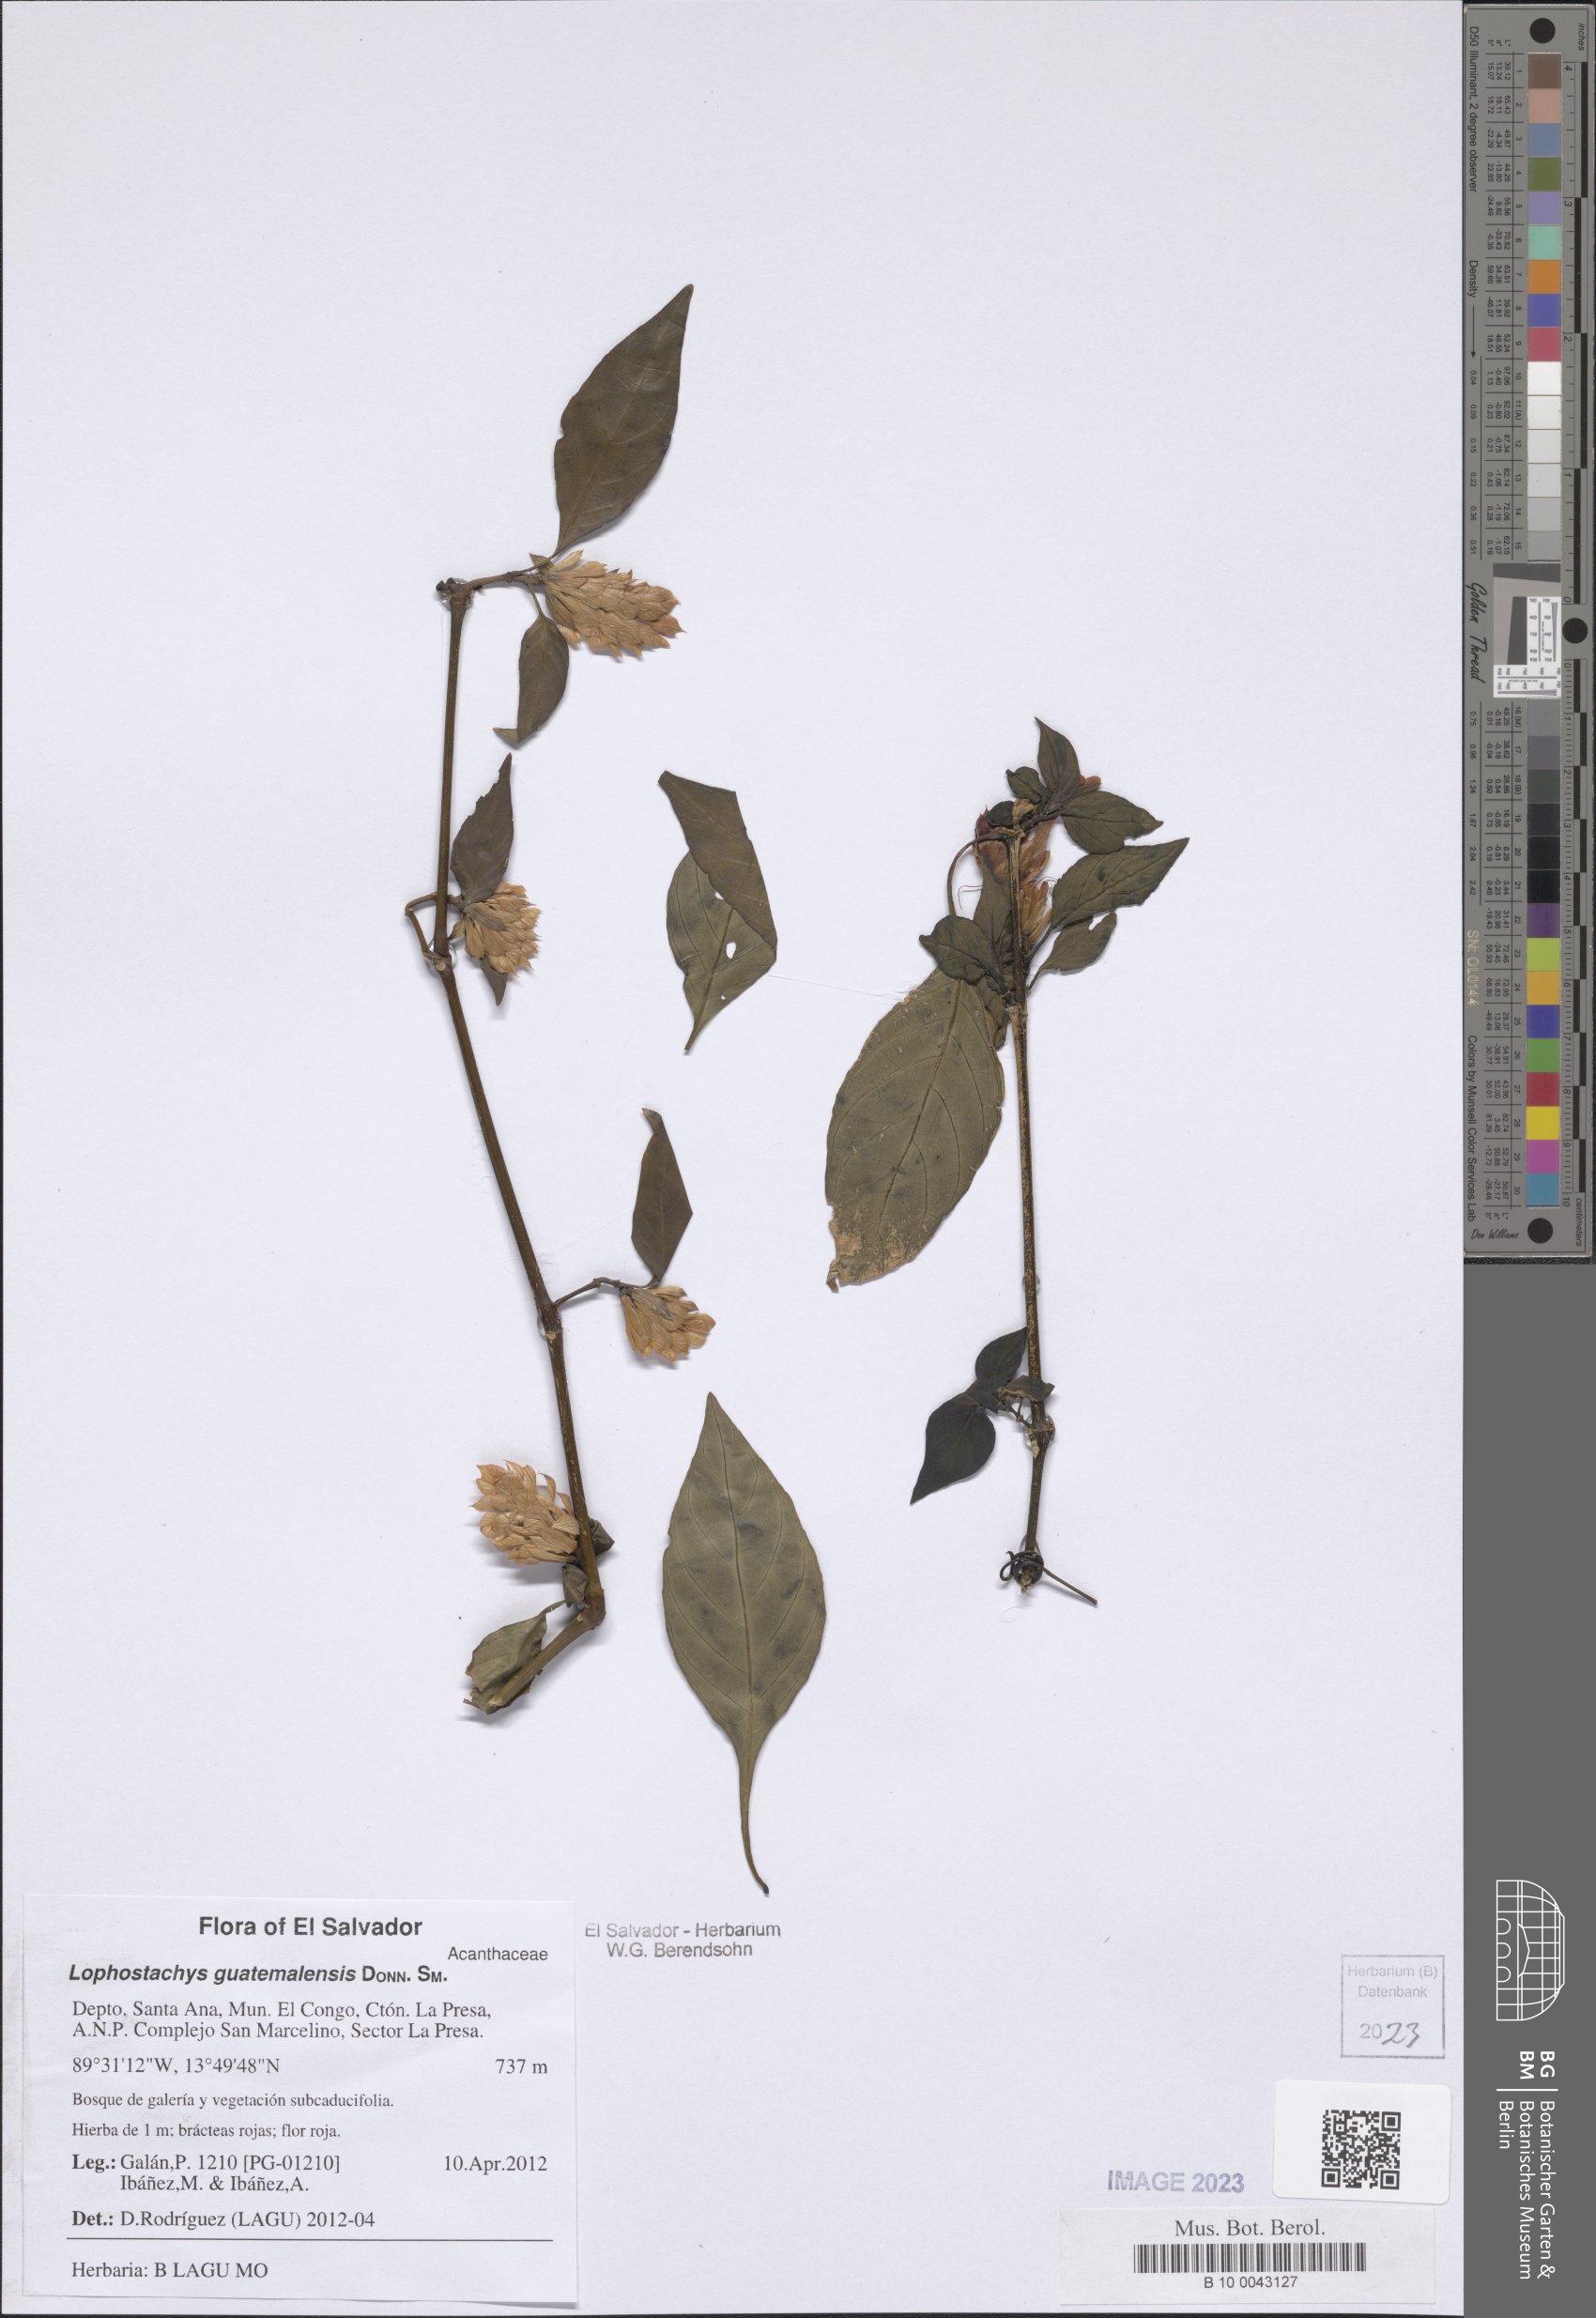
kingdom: Plantae
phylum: Tracheophyta
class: Magnoliopsida
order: Lamiales
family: Acanthaceae
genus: Lepidagathis
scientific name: Lepidagathis guatemalensis
